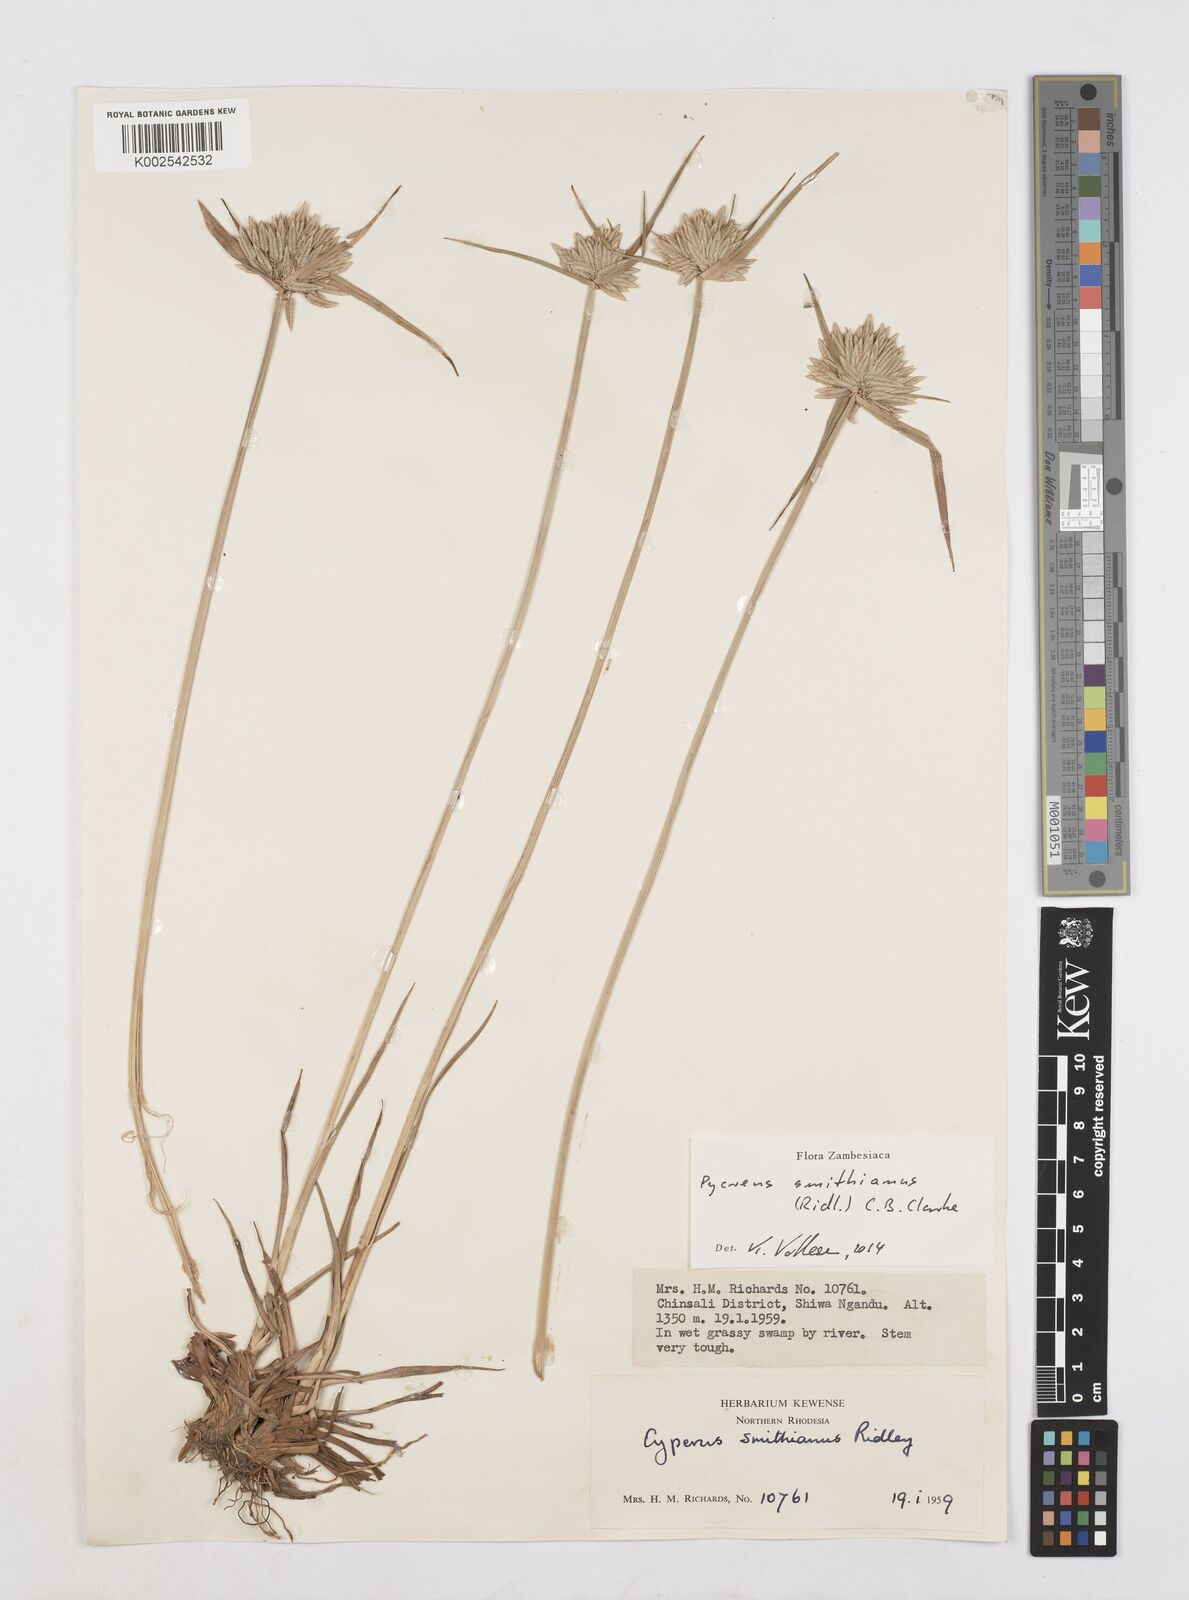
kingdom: Plantae
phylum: Tracheophyta
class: Liliopsida
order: Poales
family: Cyperaceae
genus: Cyperus
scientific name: Cyperus smithianus
